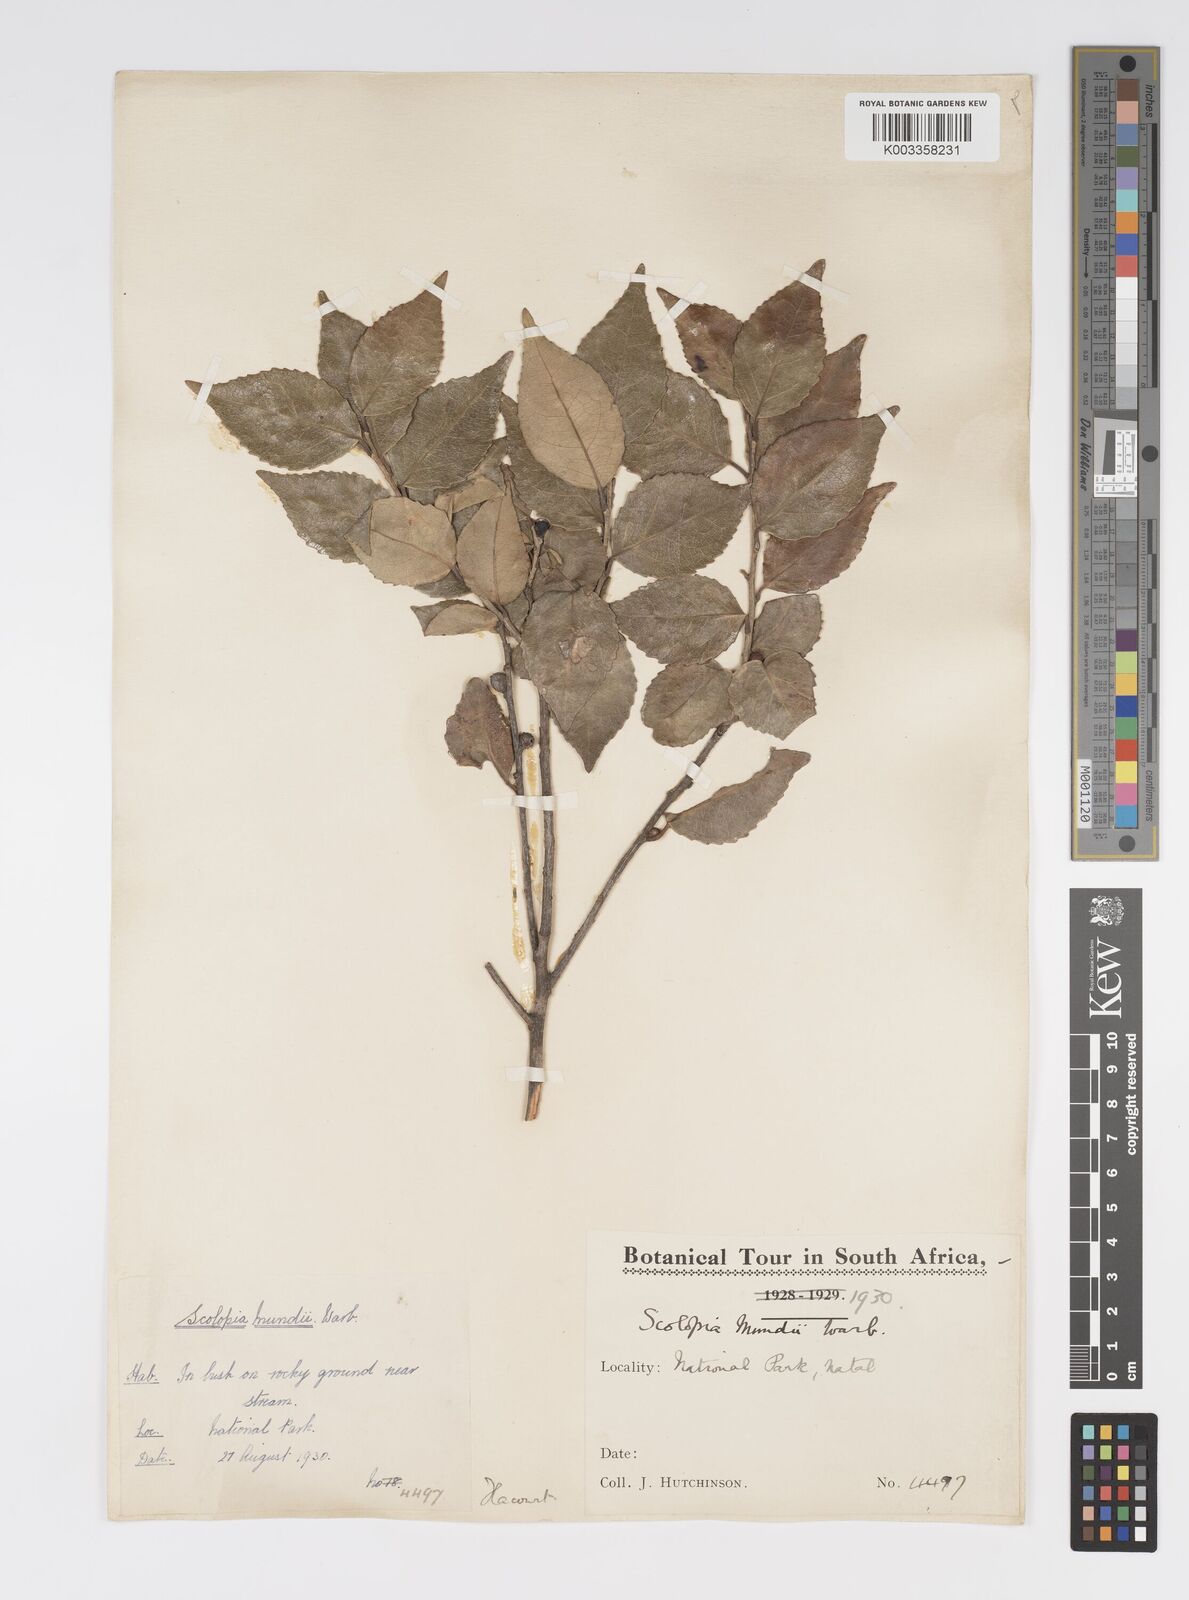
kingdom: Plantae
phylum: Tracheophyta
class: Magnoliopsida
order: Malpighiales
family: Salicaceae
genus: Scolopia
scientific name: Scolopia mundii
